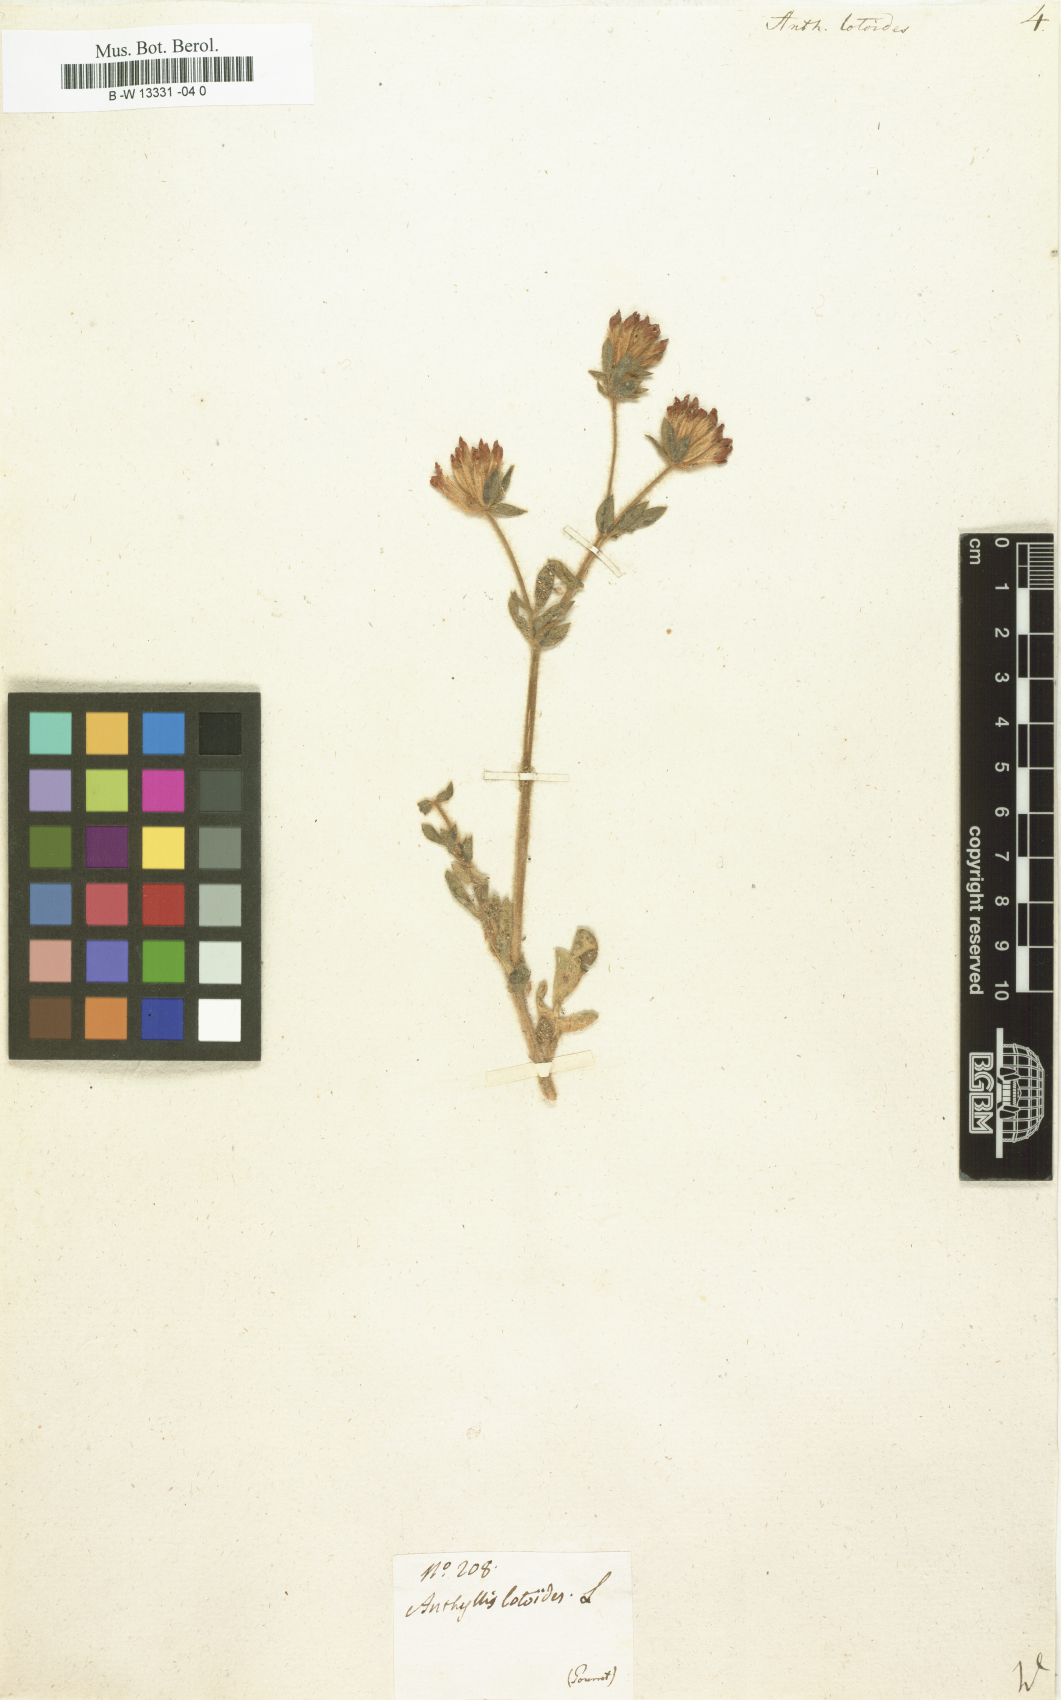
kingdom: Plantae
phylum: Tracheophyta
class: Magnoliopsida
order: Fabales
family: Fabaceae
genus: Anthyllis
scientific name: Anthyllis lotoides
